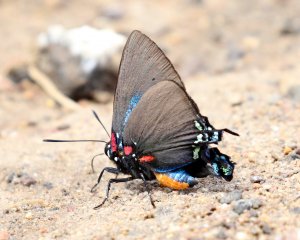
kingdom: Animalia
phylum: Arthropoda
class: Insecta
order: Lepidoptera
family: Lycaenidae
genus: Atlides
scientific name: Atlides halesus
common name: Great Purple Hairstreak
